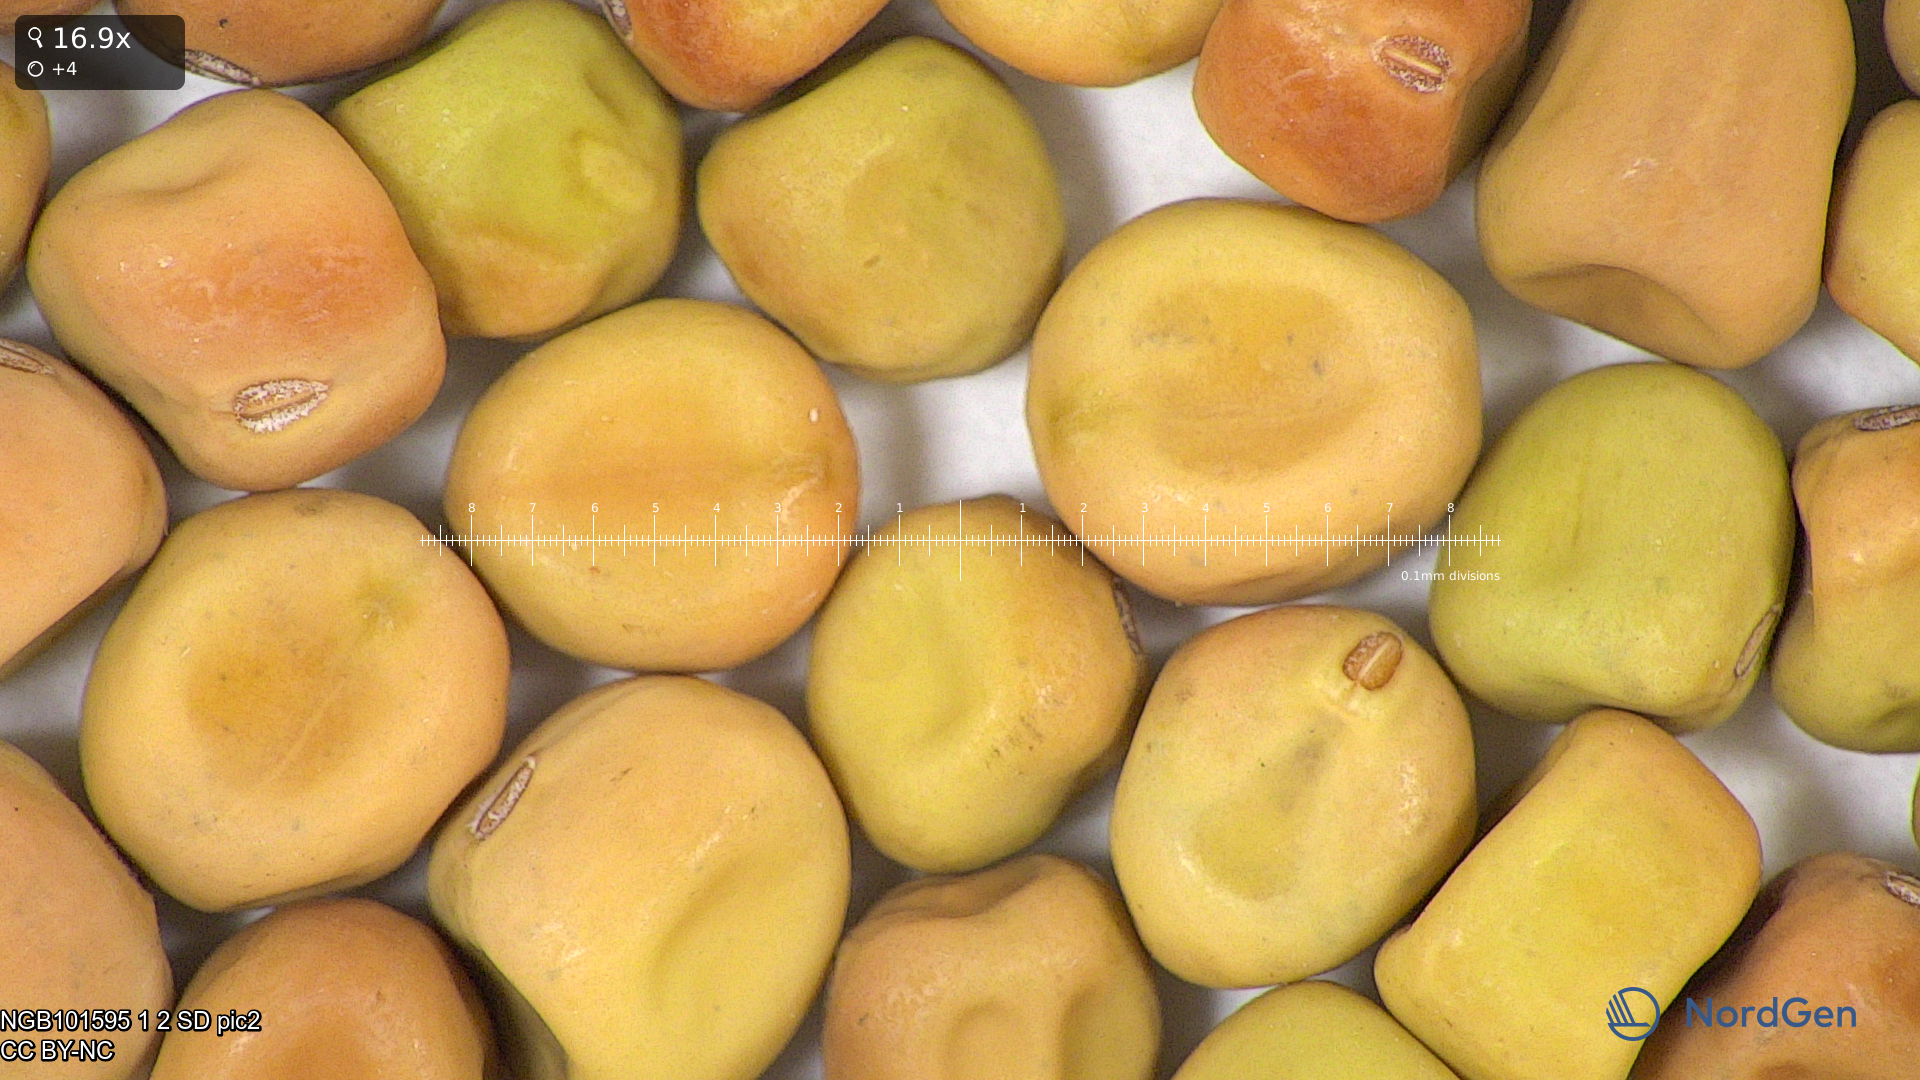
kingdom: Plantae
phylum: Tracheophyta
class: Magnoliopsida
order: Fabales
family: Fabaceae
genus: Lathyrus
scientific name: Lathyrus oleraceus
